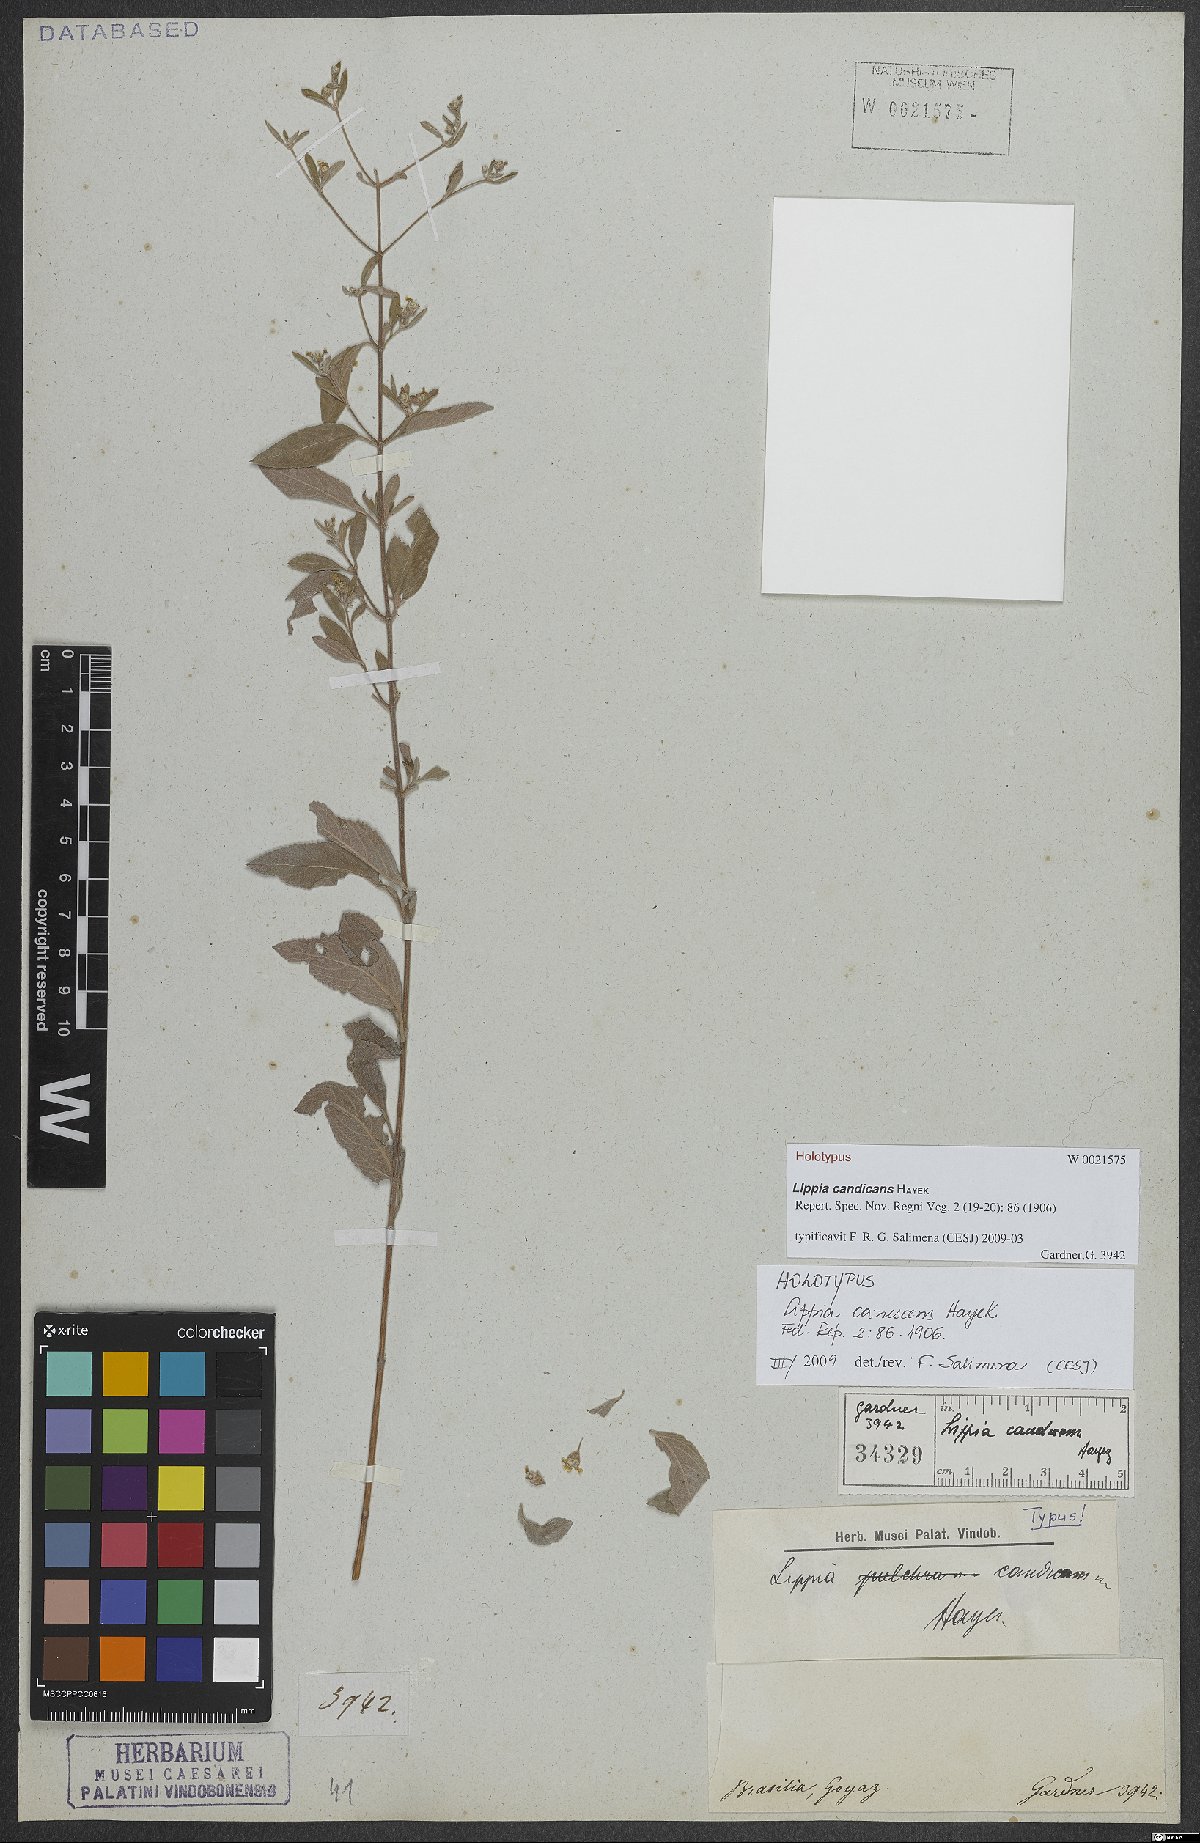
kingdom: Plantae
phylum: Tracheophyta
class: Magnoliopsida
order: Lamiales
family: Verbenaceae
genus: Lippia
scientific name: Lippia origanoides
